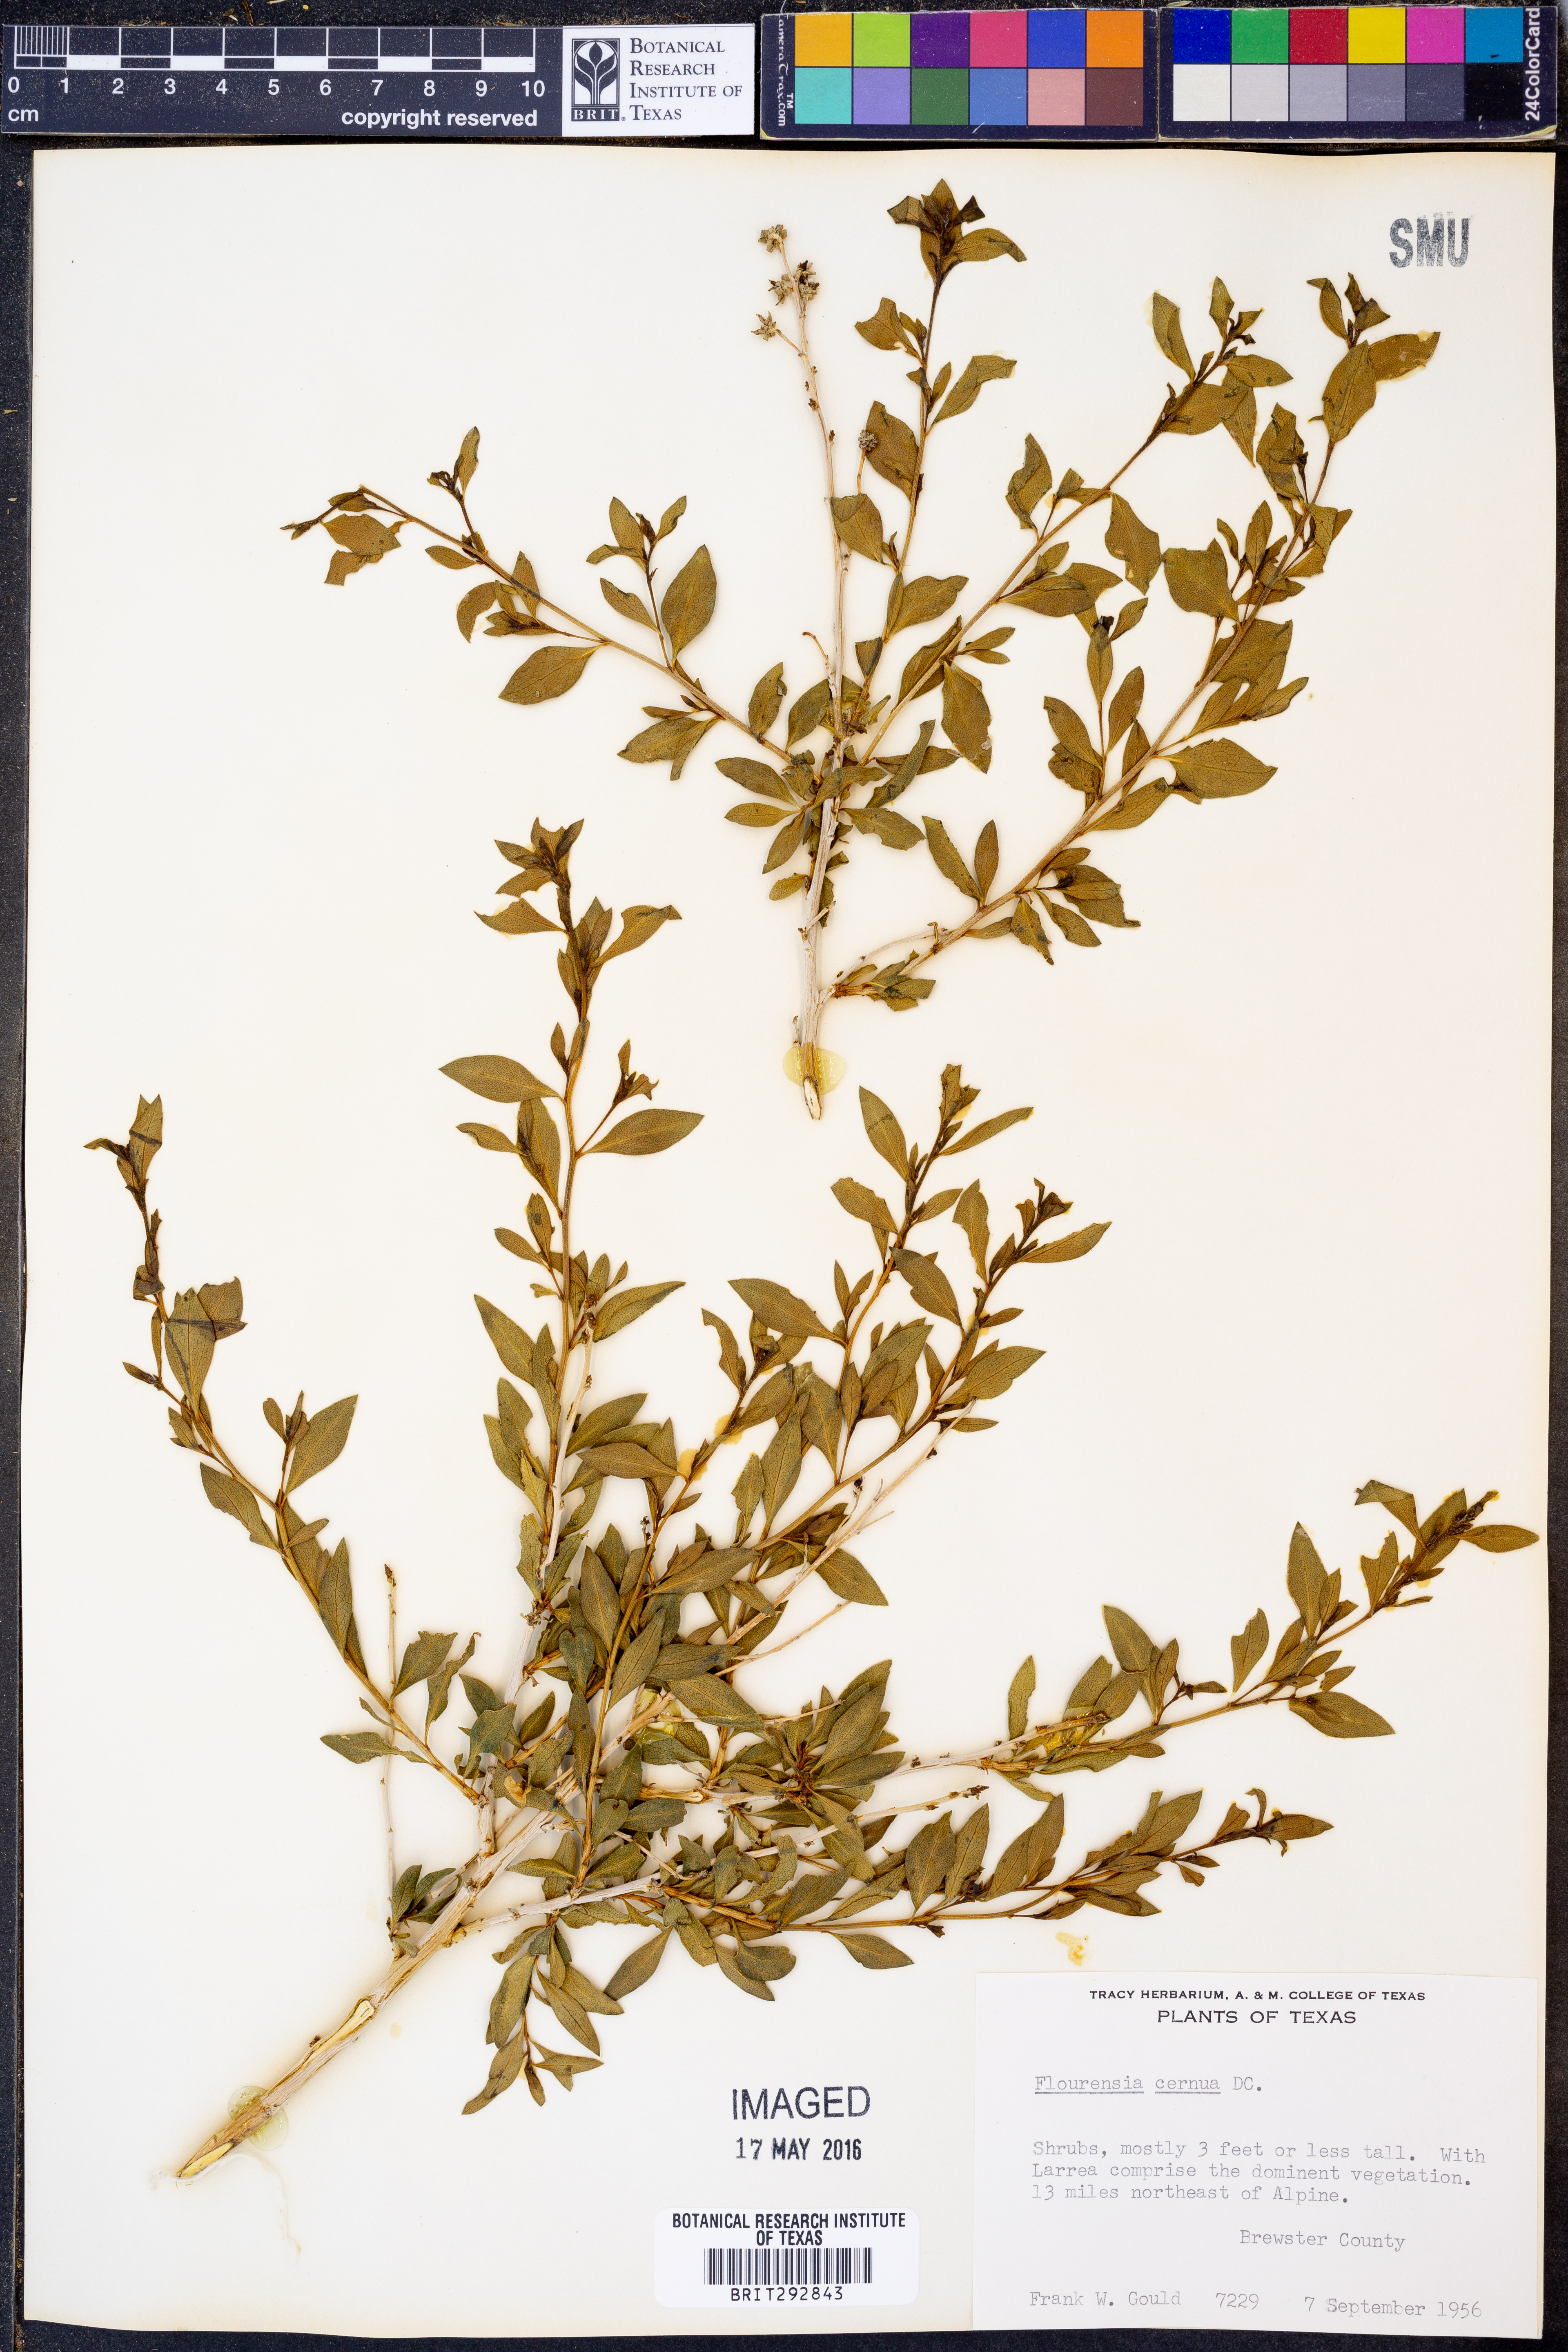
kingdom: Plantae
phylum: Tracheophyta
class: Magnoliopsida
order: Asterales
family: Asteraceae
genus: Flourensia
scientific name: Flourensia cernua
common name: Varnishbush
